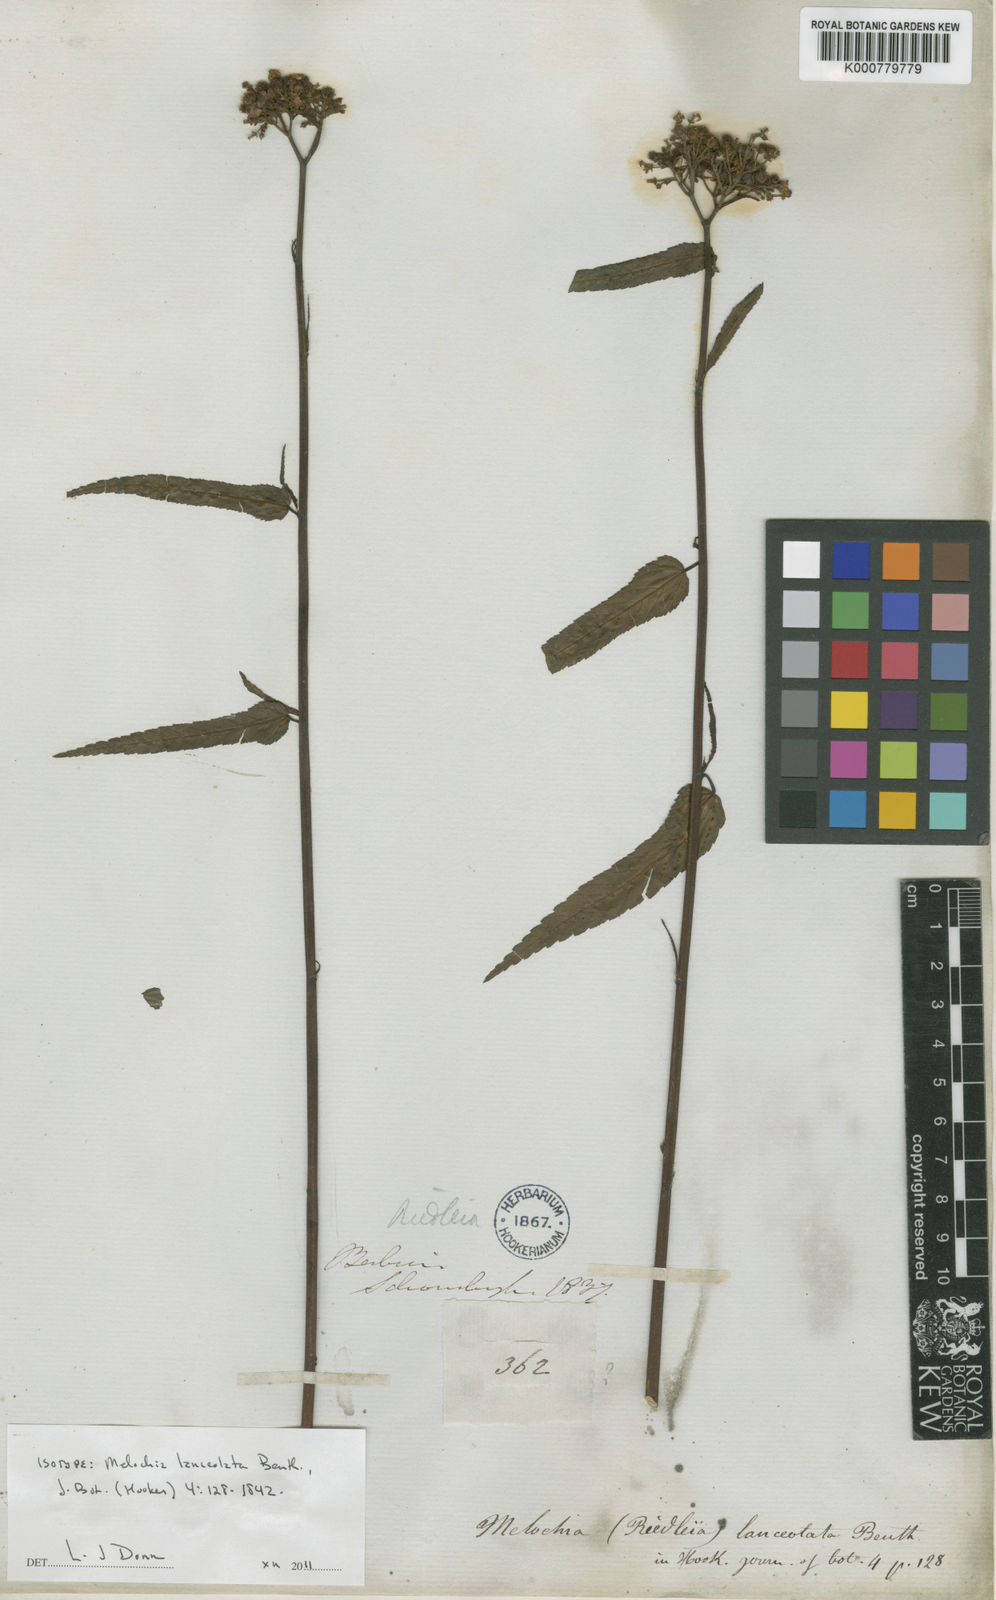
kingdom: Plantae
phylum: Tracheophyta
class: Magnoliopsida
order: Malvales
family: Malvaceae
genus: Melochia
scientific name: Melochia lanceolata
